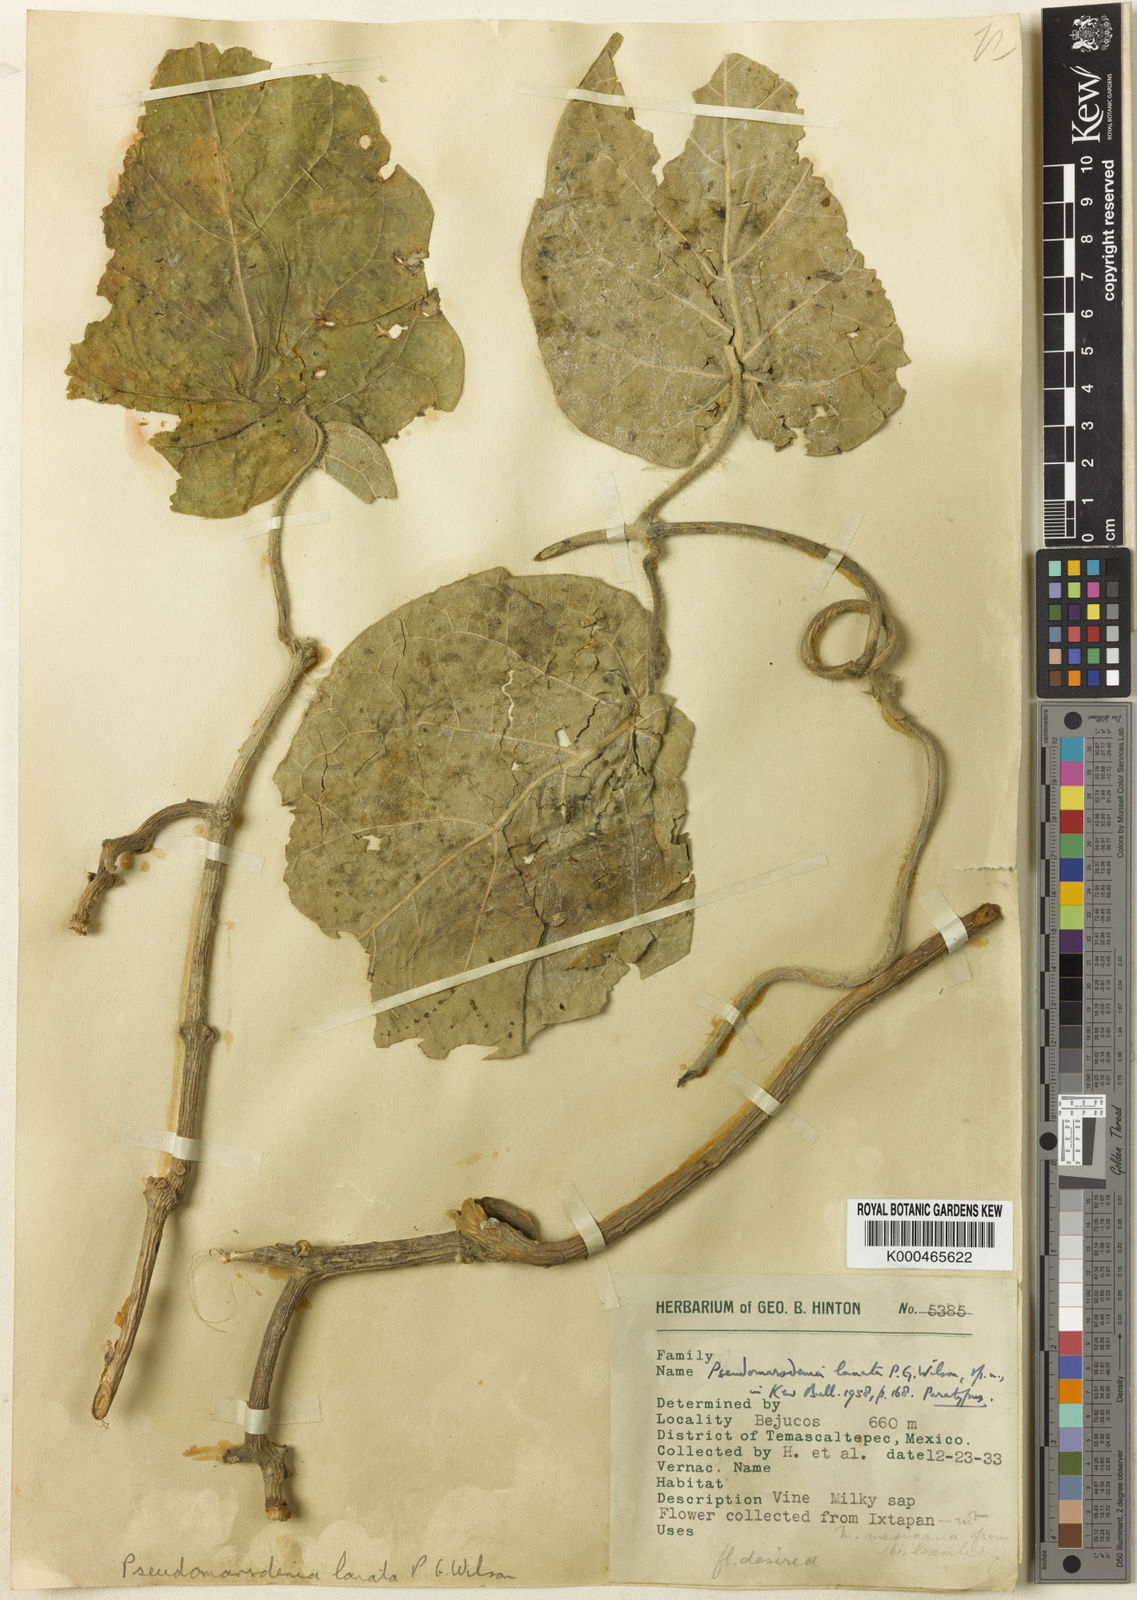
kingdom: Plantae
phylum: Tracheophyta
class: Magnoliopsida
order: Gentianales
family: Apocynaceae
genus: Ruehssia
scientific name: Ruehssia lanata
